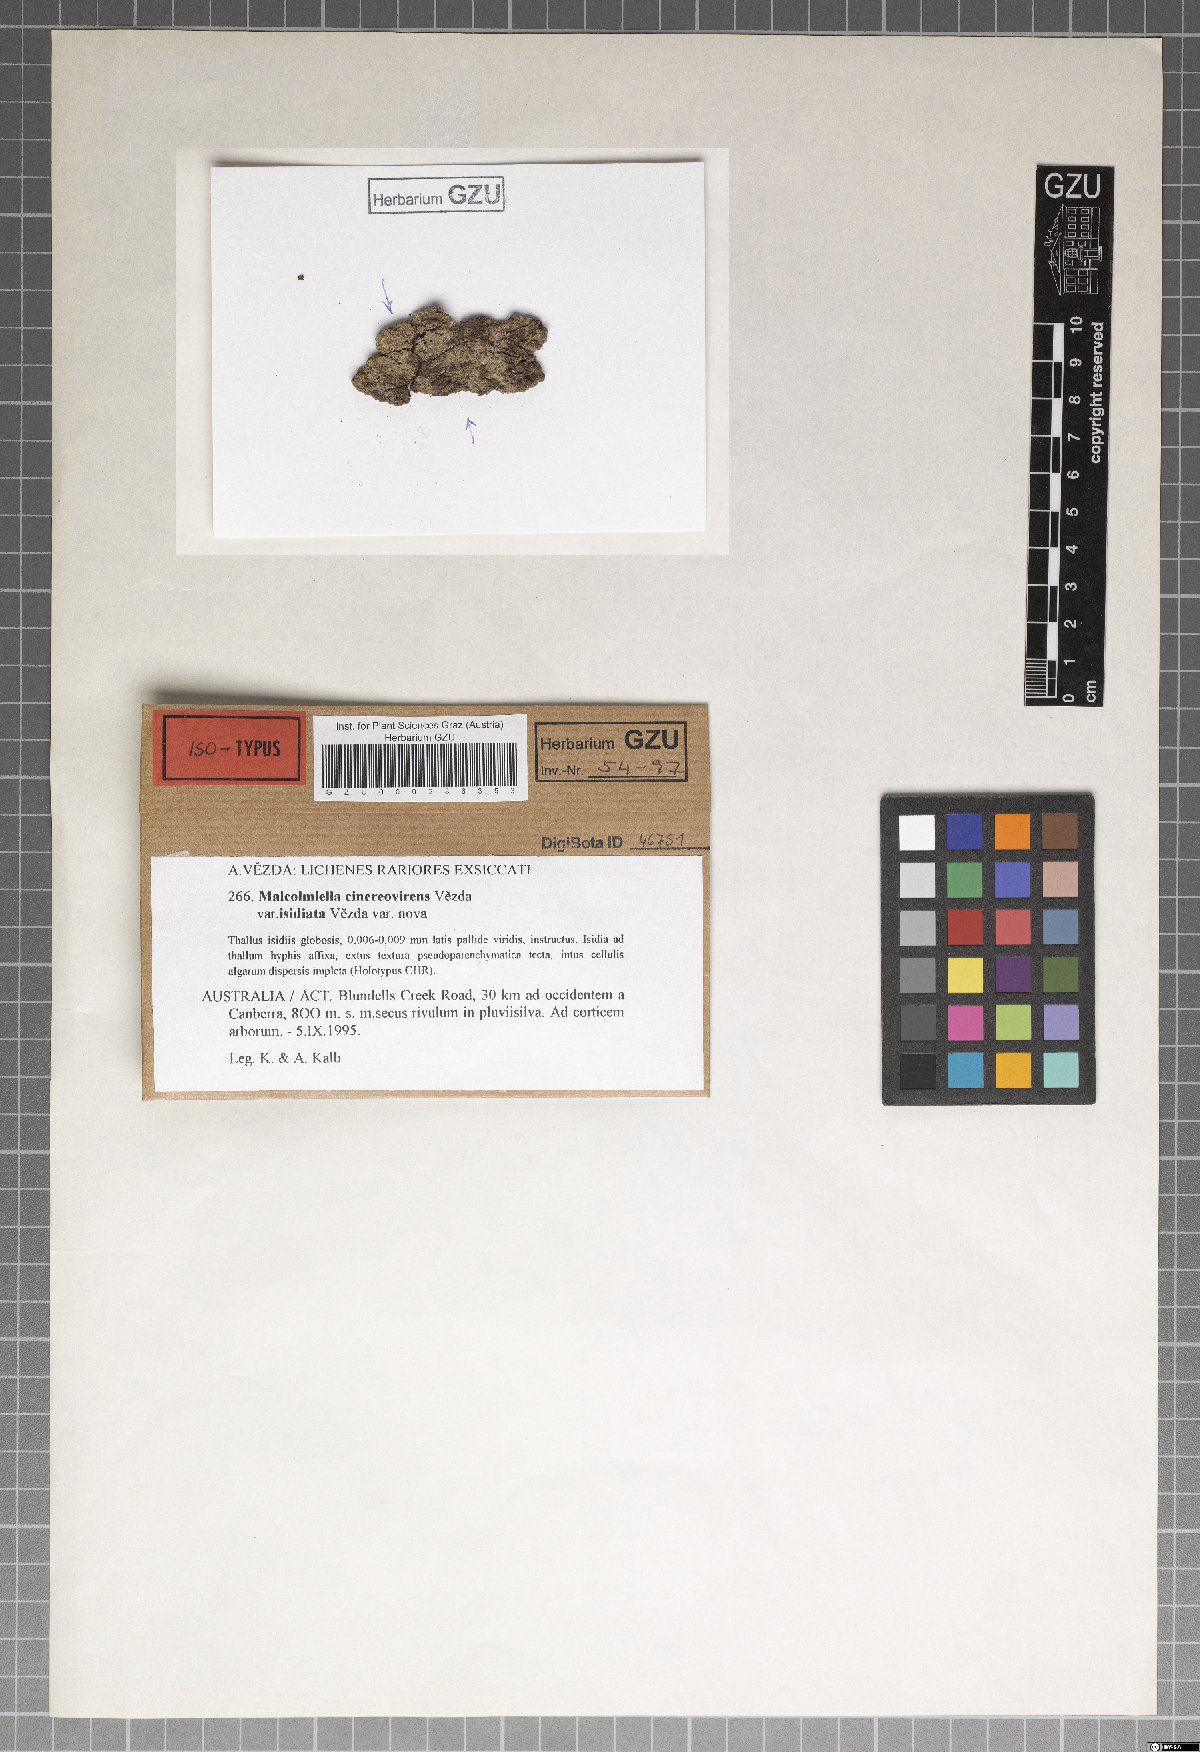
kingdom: Fungi
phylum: Ascomycota
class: Lecanoromycetes
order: Teloschistales
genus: Malcolmiella
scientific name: Malcolmiella cinereovirens
